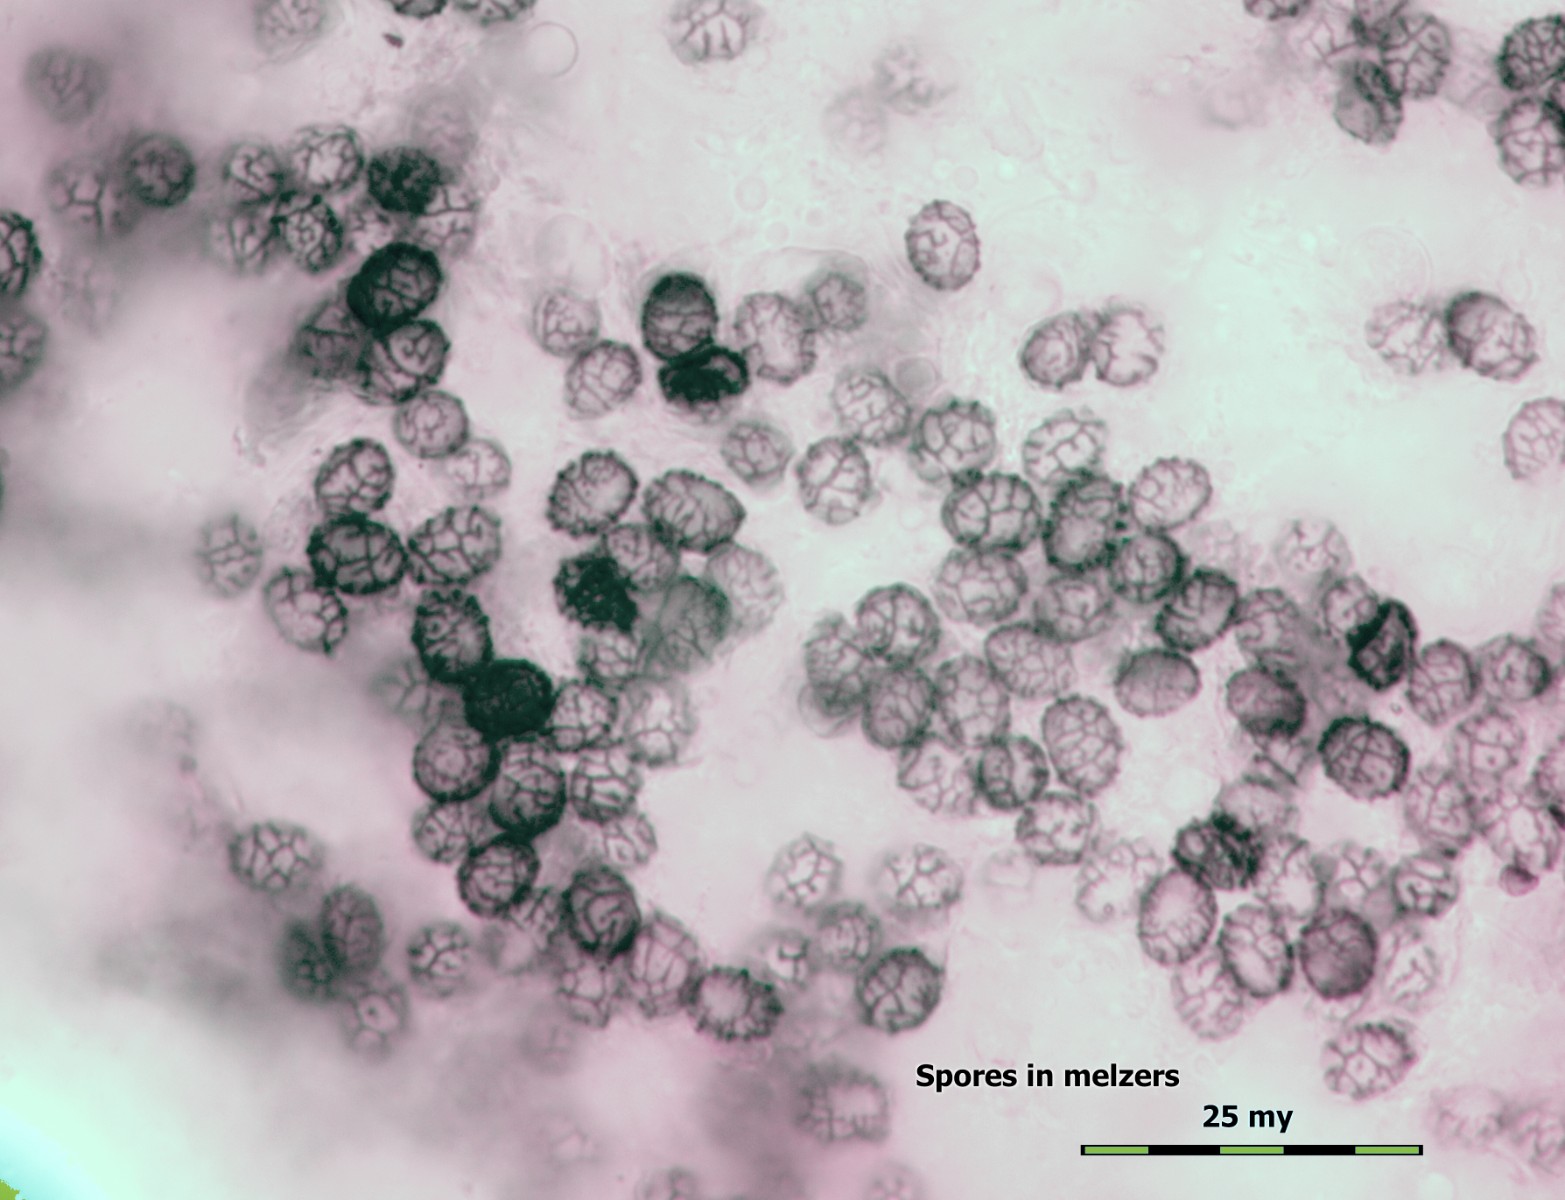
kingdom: Fungi
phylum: Basidiomycota
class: Agaricomycetes
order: Russulales
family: Russulaceae
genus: Lactarius
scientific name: Lactarius controversus
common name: rosabladet mælkehat
